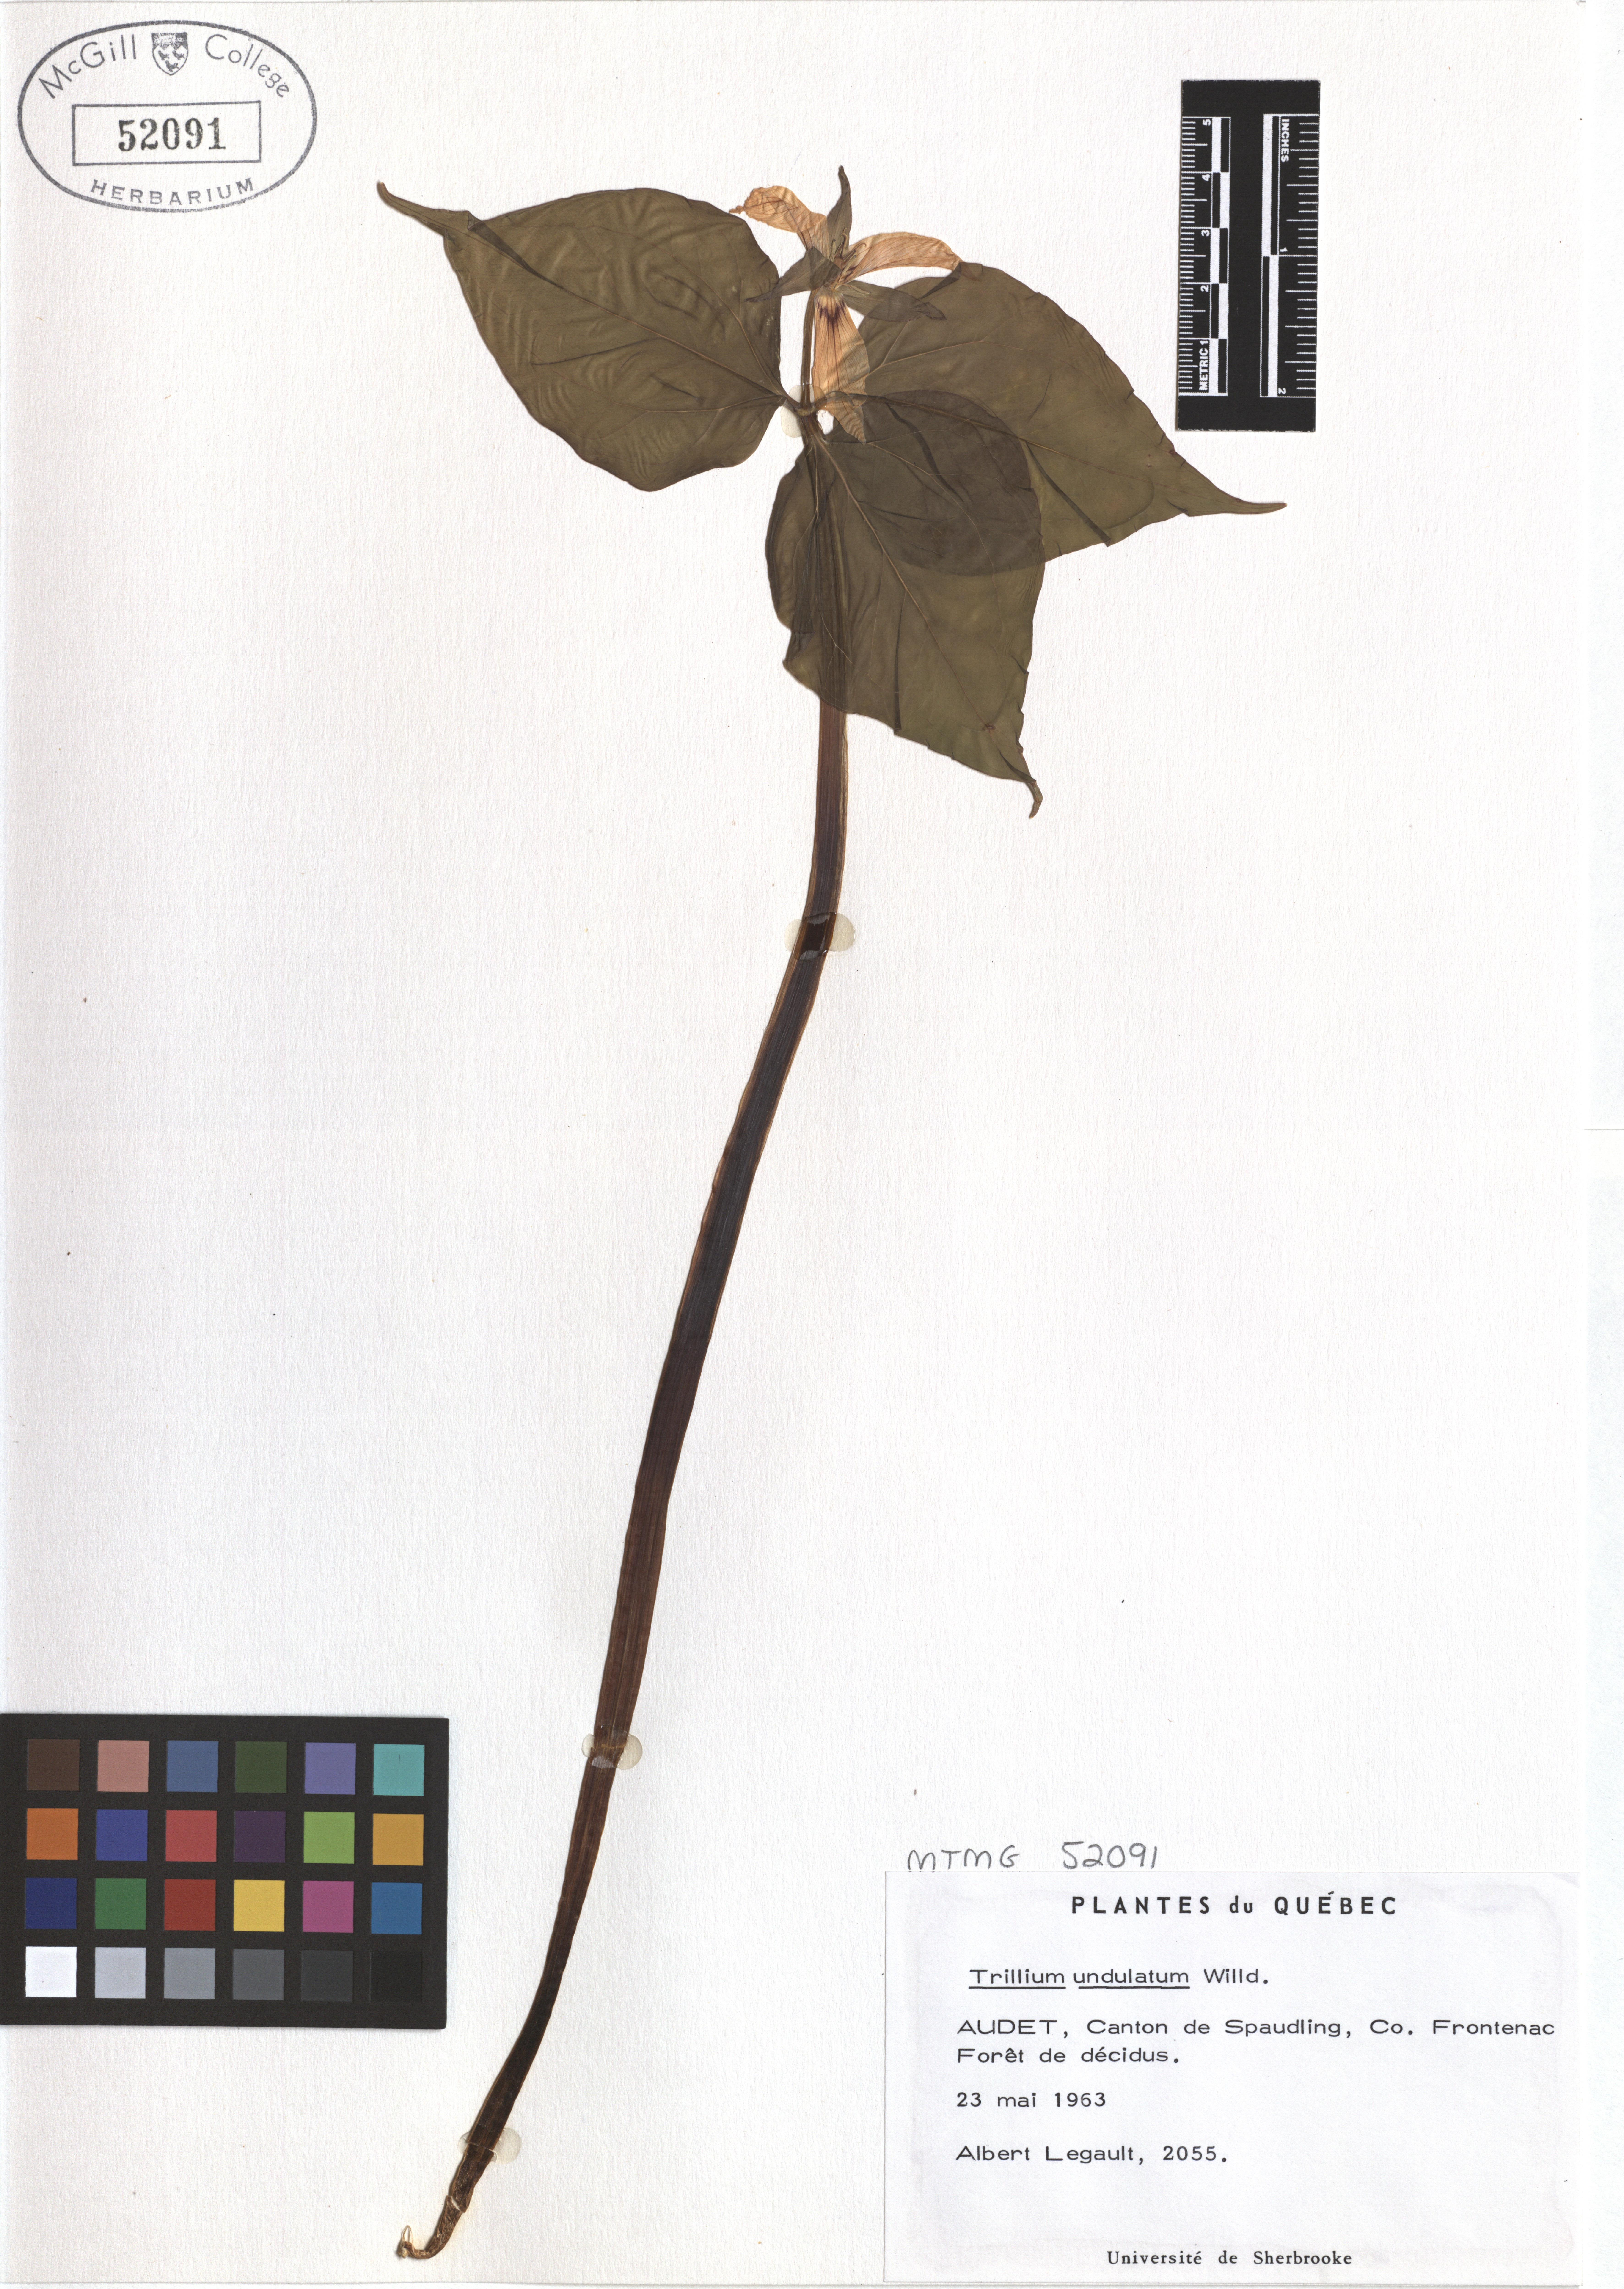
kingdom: Plantae
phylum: Tracheophyta
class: Liliopsida
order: Liliales
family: Melanthiaceae
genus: Trillium
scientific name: Trillium undulatum
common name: Paint trillium
